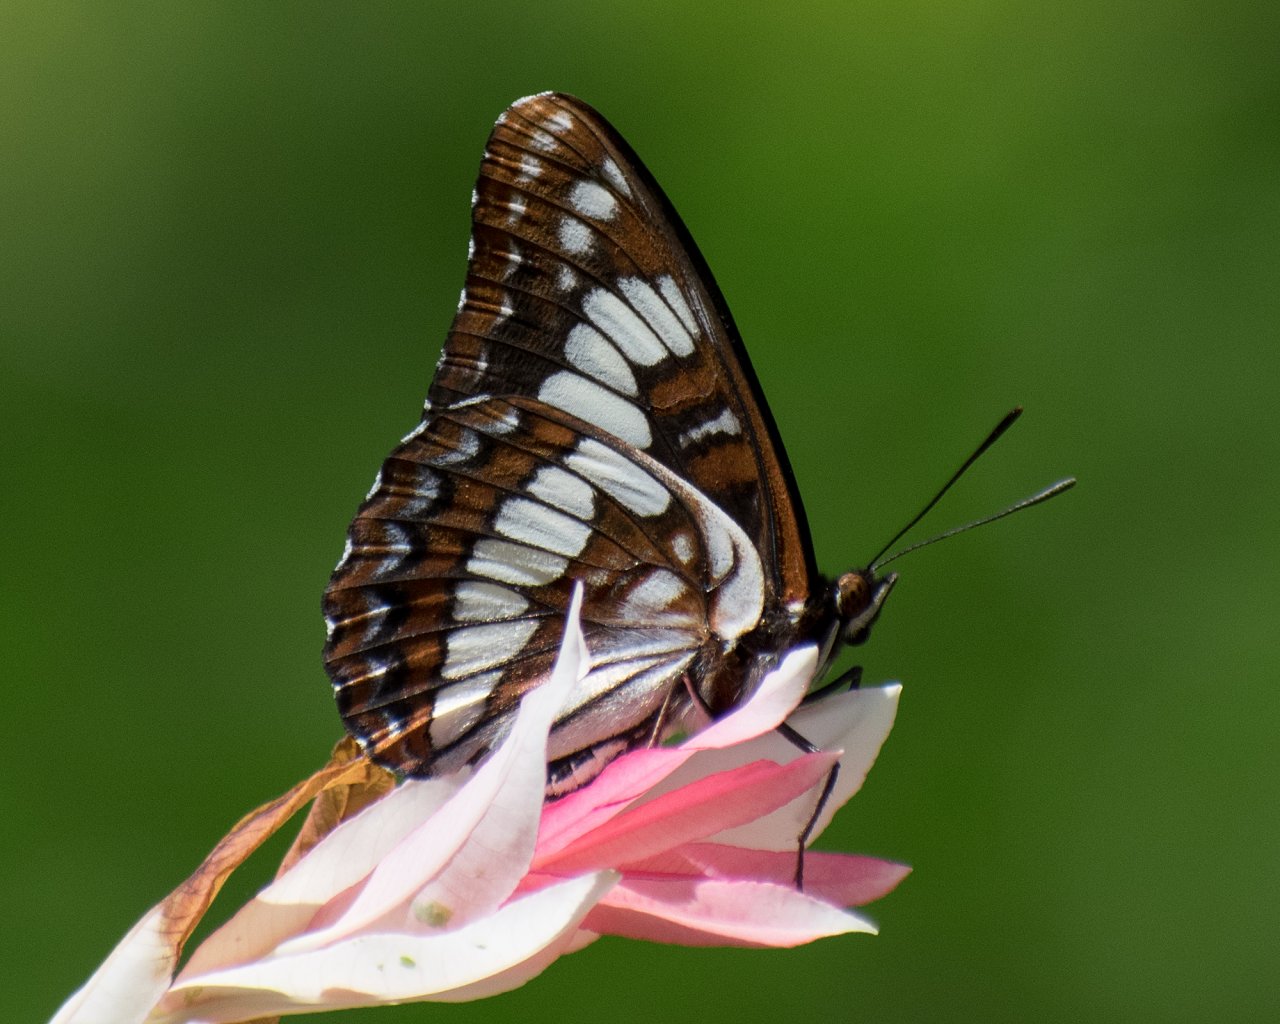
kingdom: Animalia
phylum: Arthropoda
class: Insecta
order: Lepidoptera
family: Nymphalidae
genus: Limenitis
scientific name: Limenitis lorquini
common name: Lorquin's Admiral
